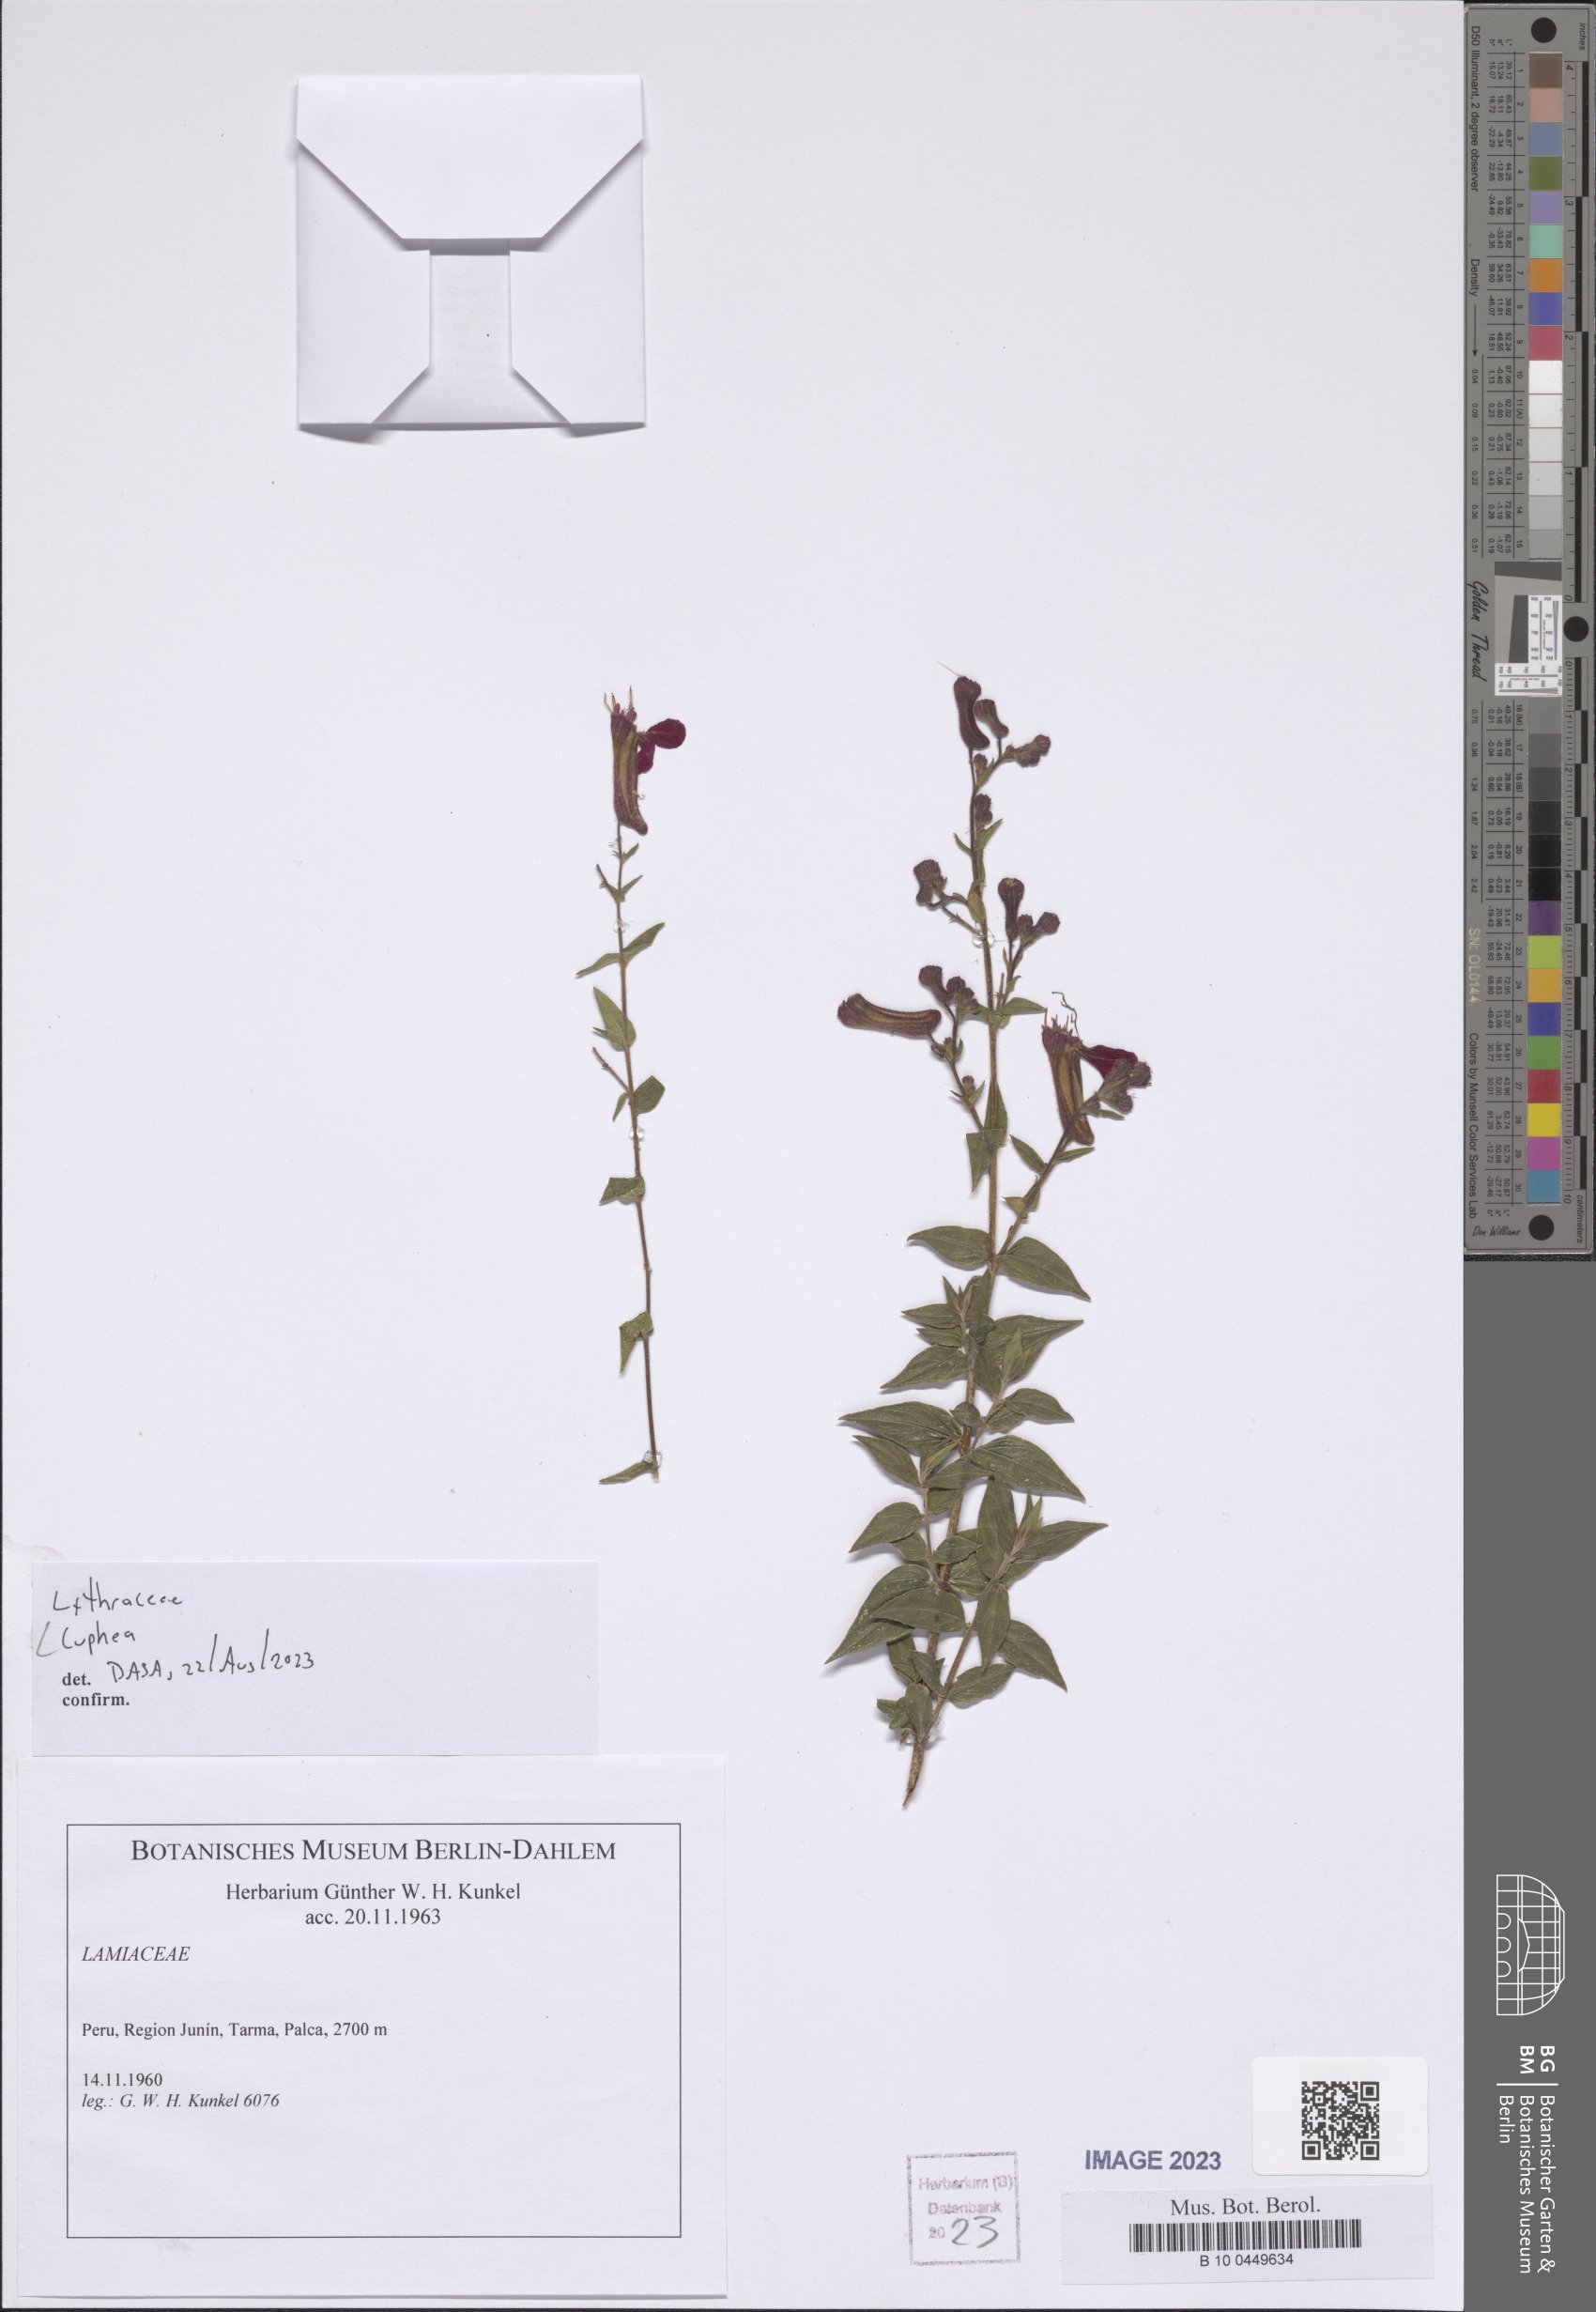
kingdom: Plantae
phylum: Tracheophyta
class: Magnoliopsida
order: Myrtales
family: Lythraceae
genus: Cuphea
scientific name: Cuphea
